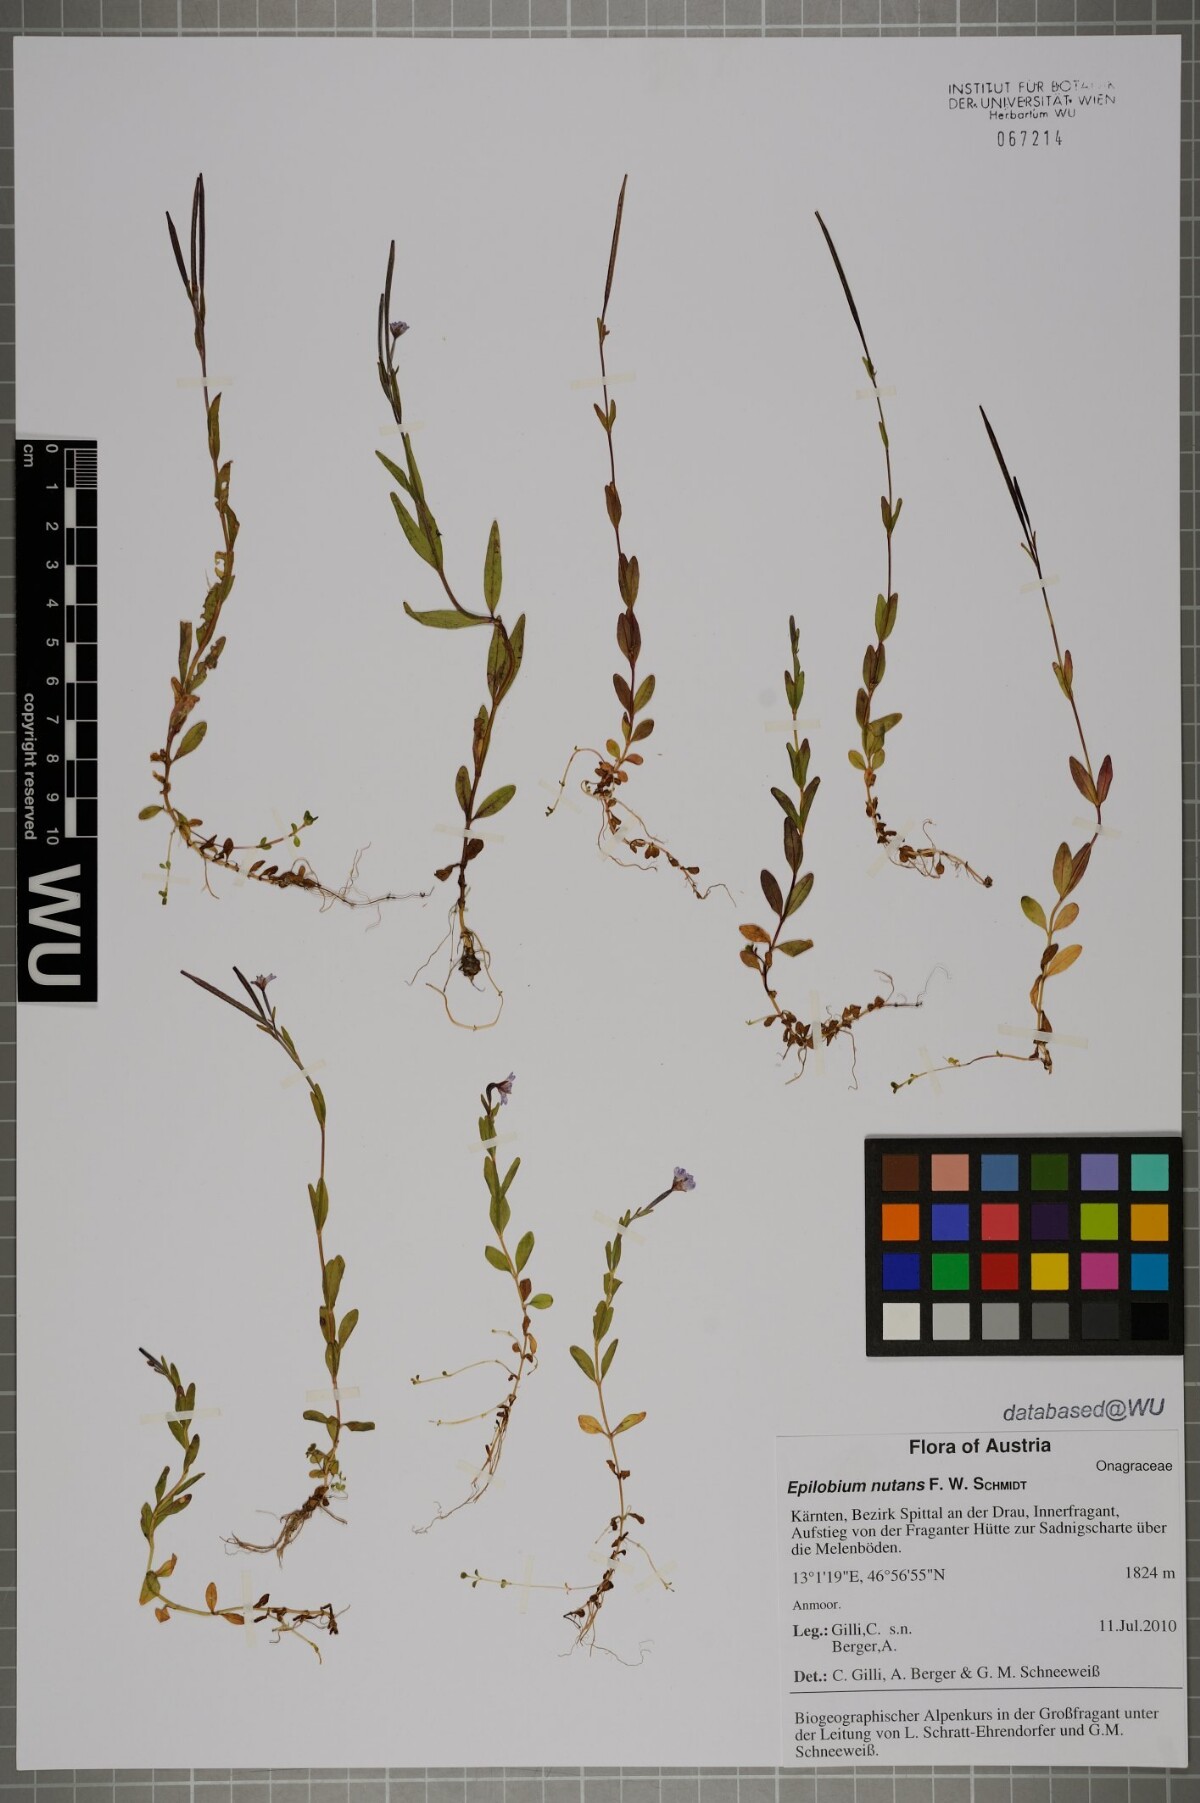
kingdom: Plantae
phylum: Tracheophyta
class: Magnoliopsida
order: Myrtales
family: Onagraceae
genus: Epilobium
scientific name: Epilobium nutans
